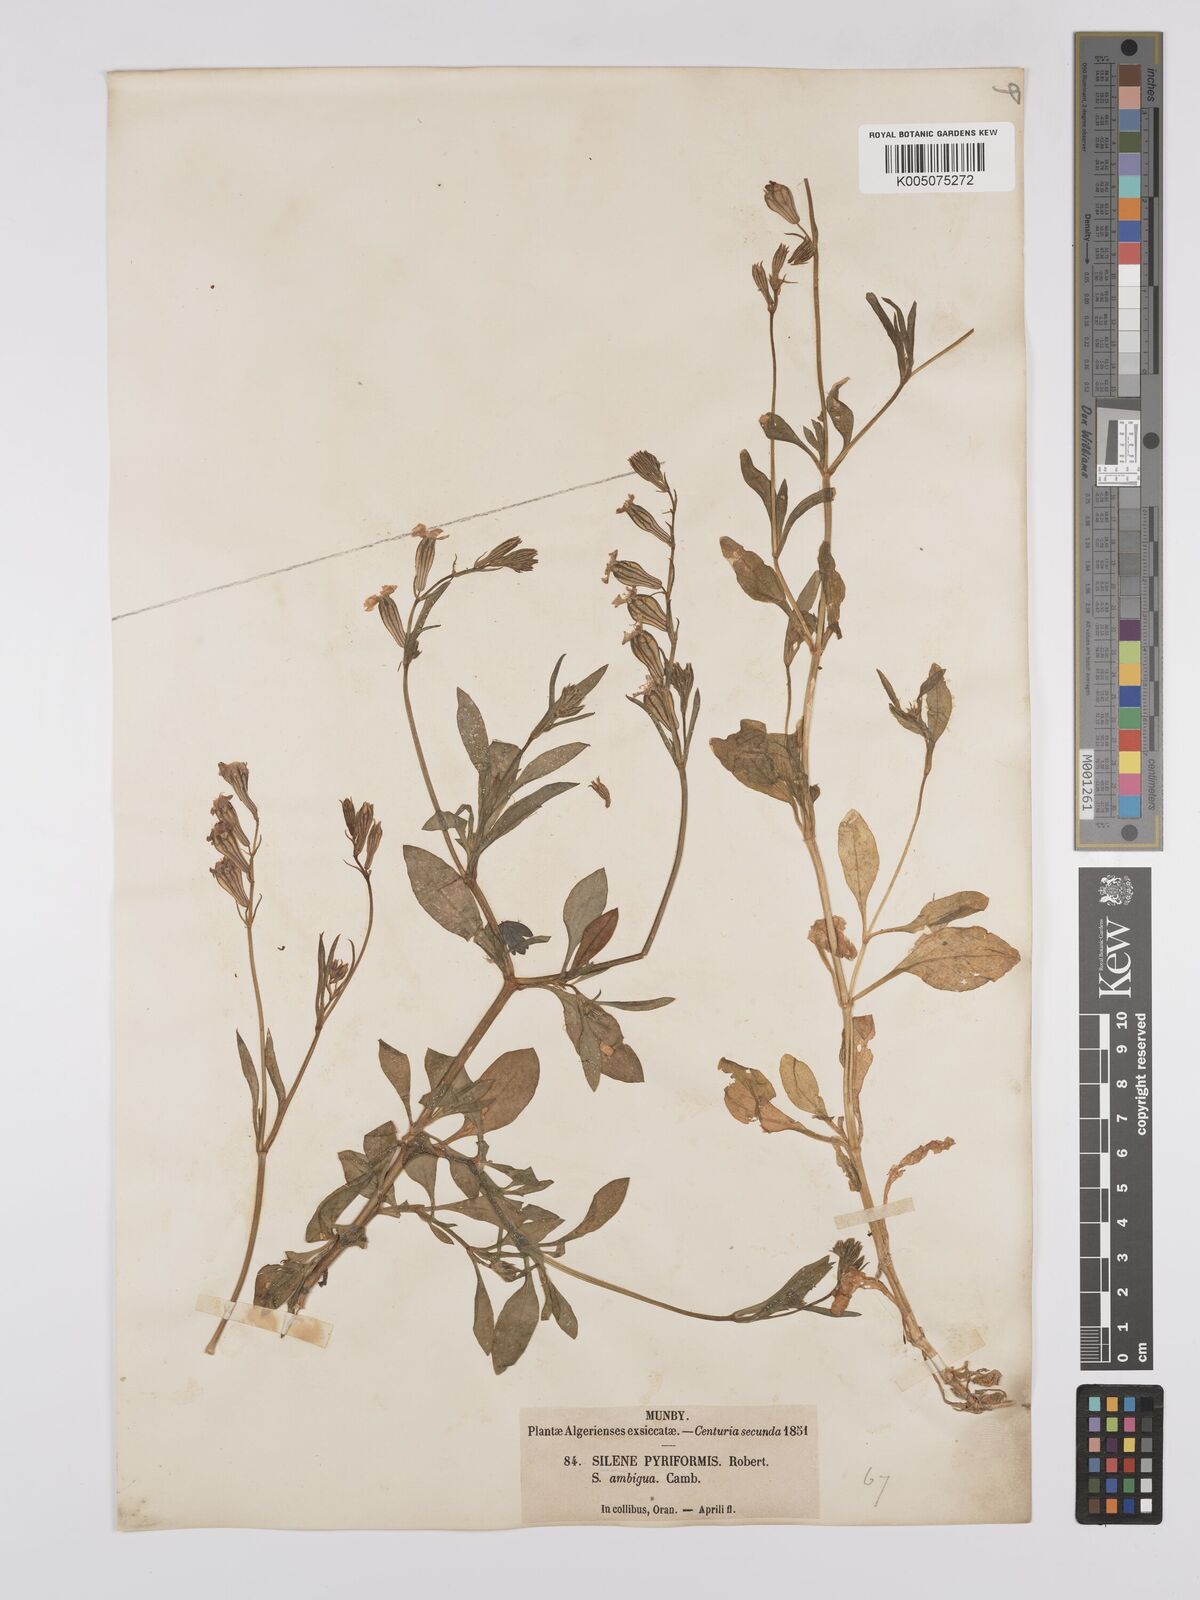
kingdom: Plantae
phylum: Tracheophyta
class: Magnoliopsida
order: Caryophyllales
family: Caryophyllaceae
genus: Silene
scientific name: Silene secundiflora
